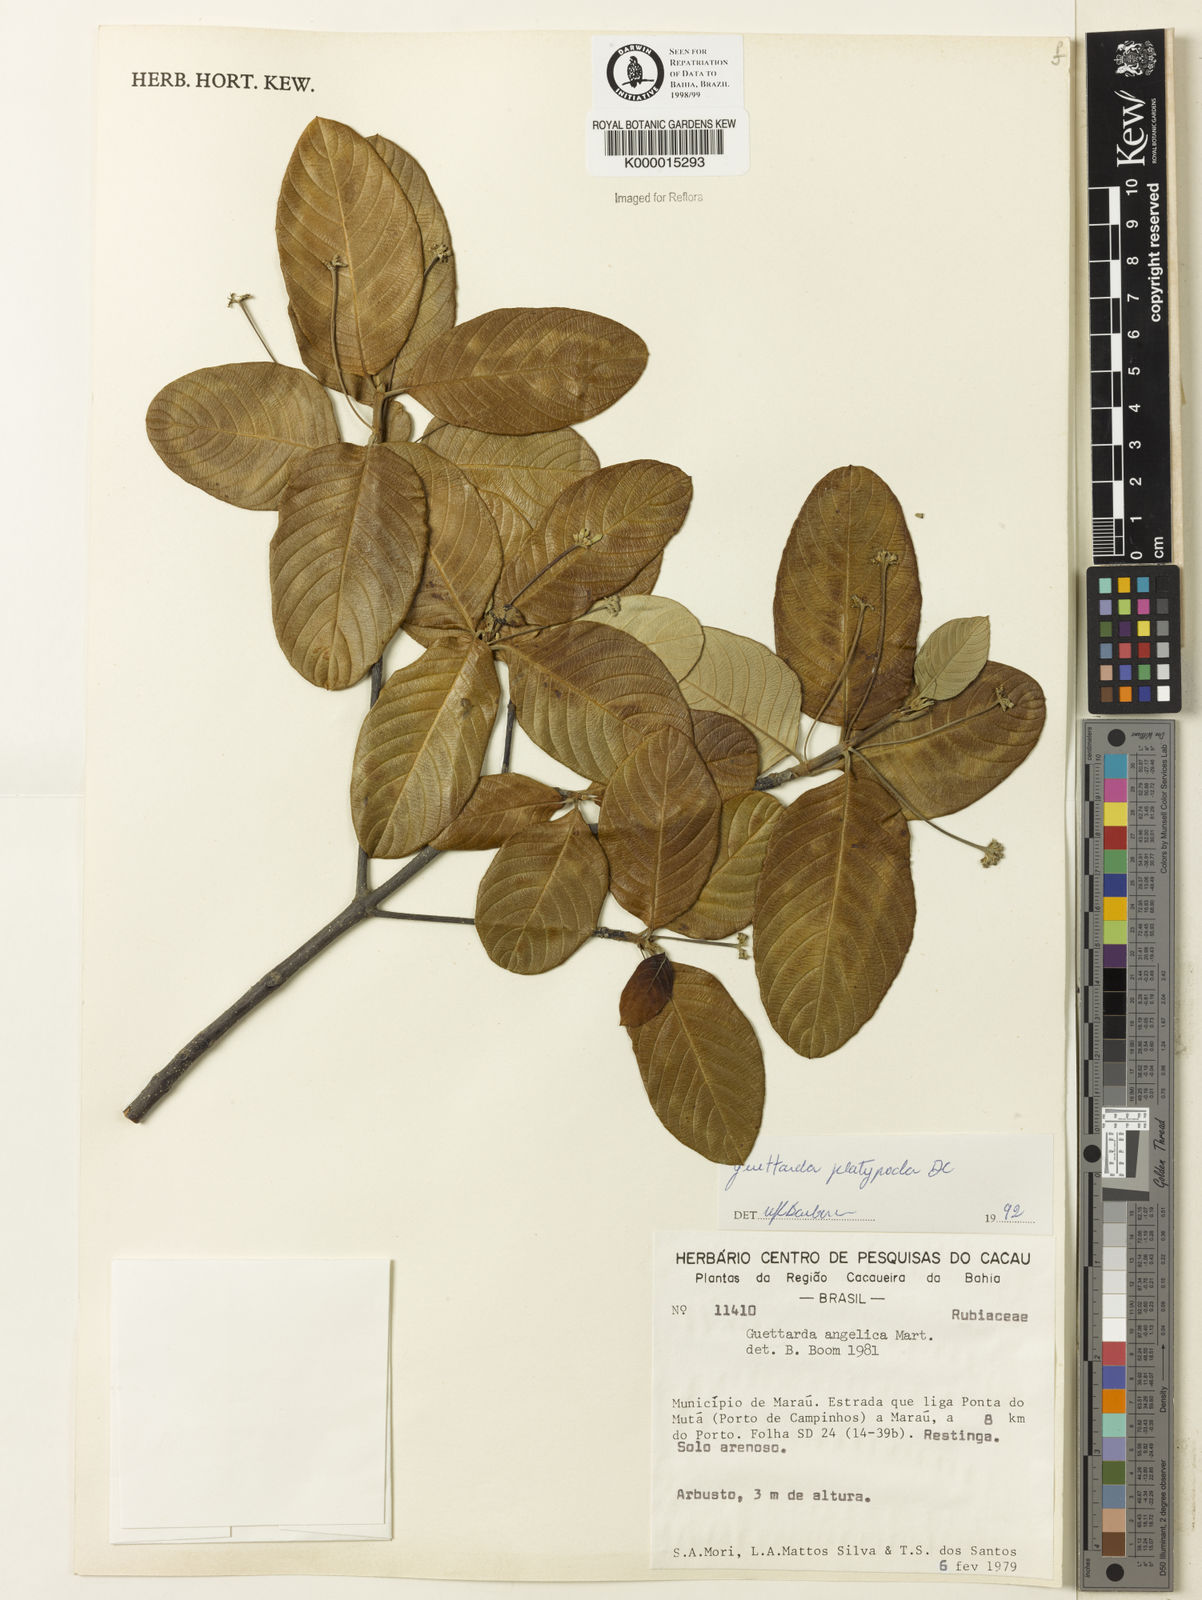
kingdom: Plantae
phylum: Tracheophyta
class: Magnoliopsida
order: Gentianales
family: Rubiaceae
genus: Guettarda
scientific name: Guettarda platypoda
